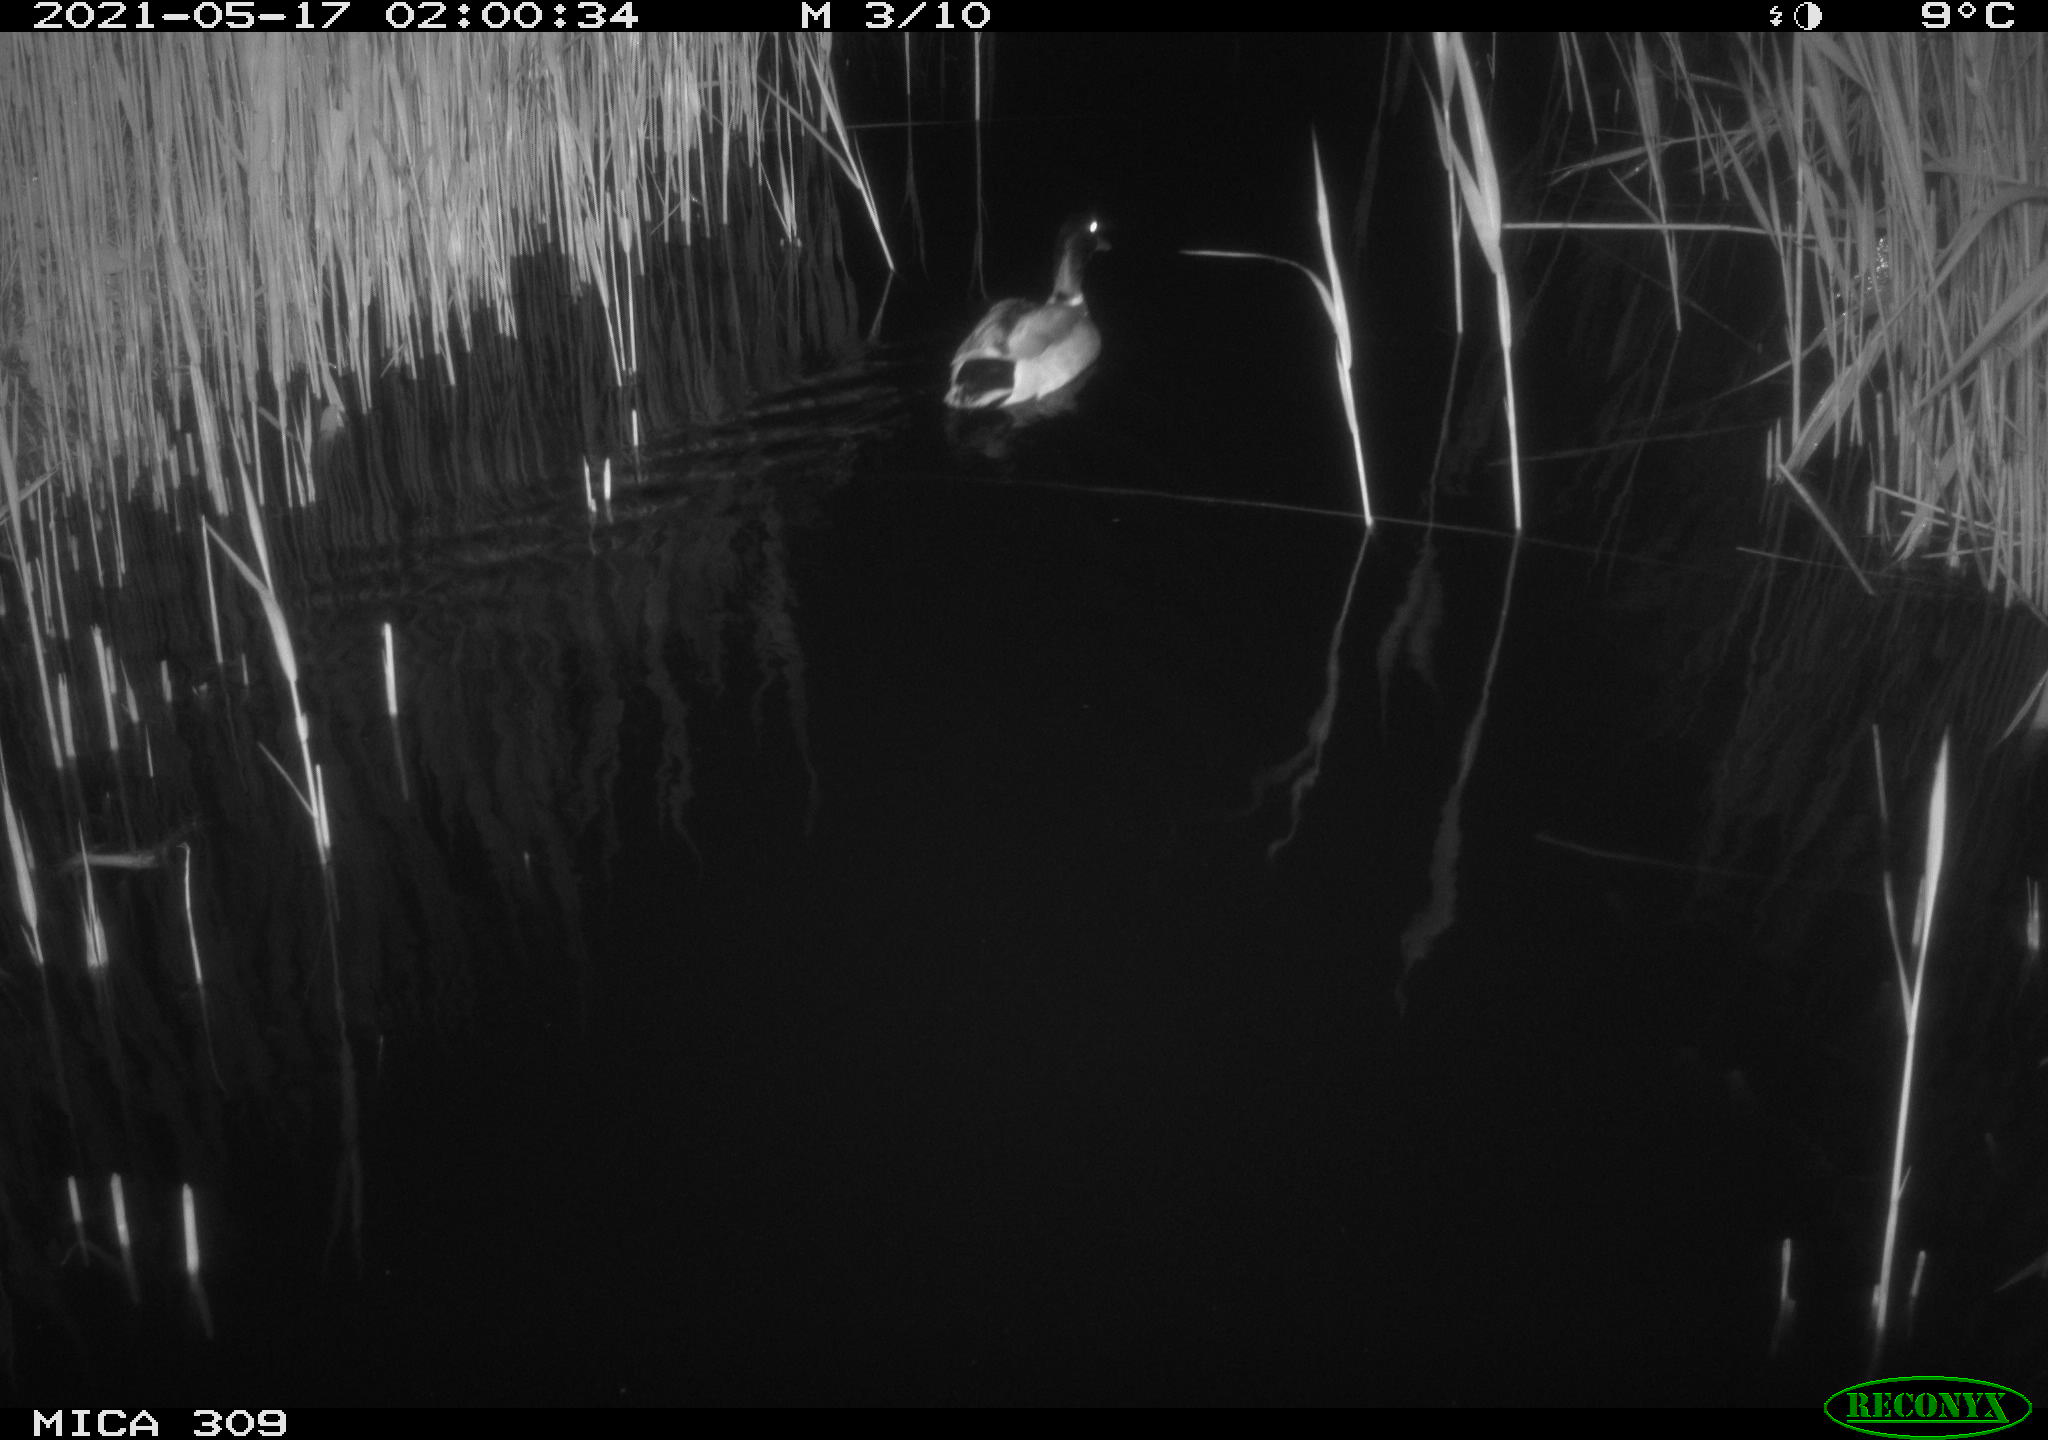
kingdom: Animalia
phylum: Chordata
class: Aves
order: Anseriformes
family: Anatidae
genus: Anas
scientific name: Anas platyrhynchos
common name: Mallard
